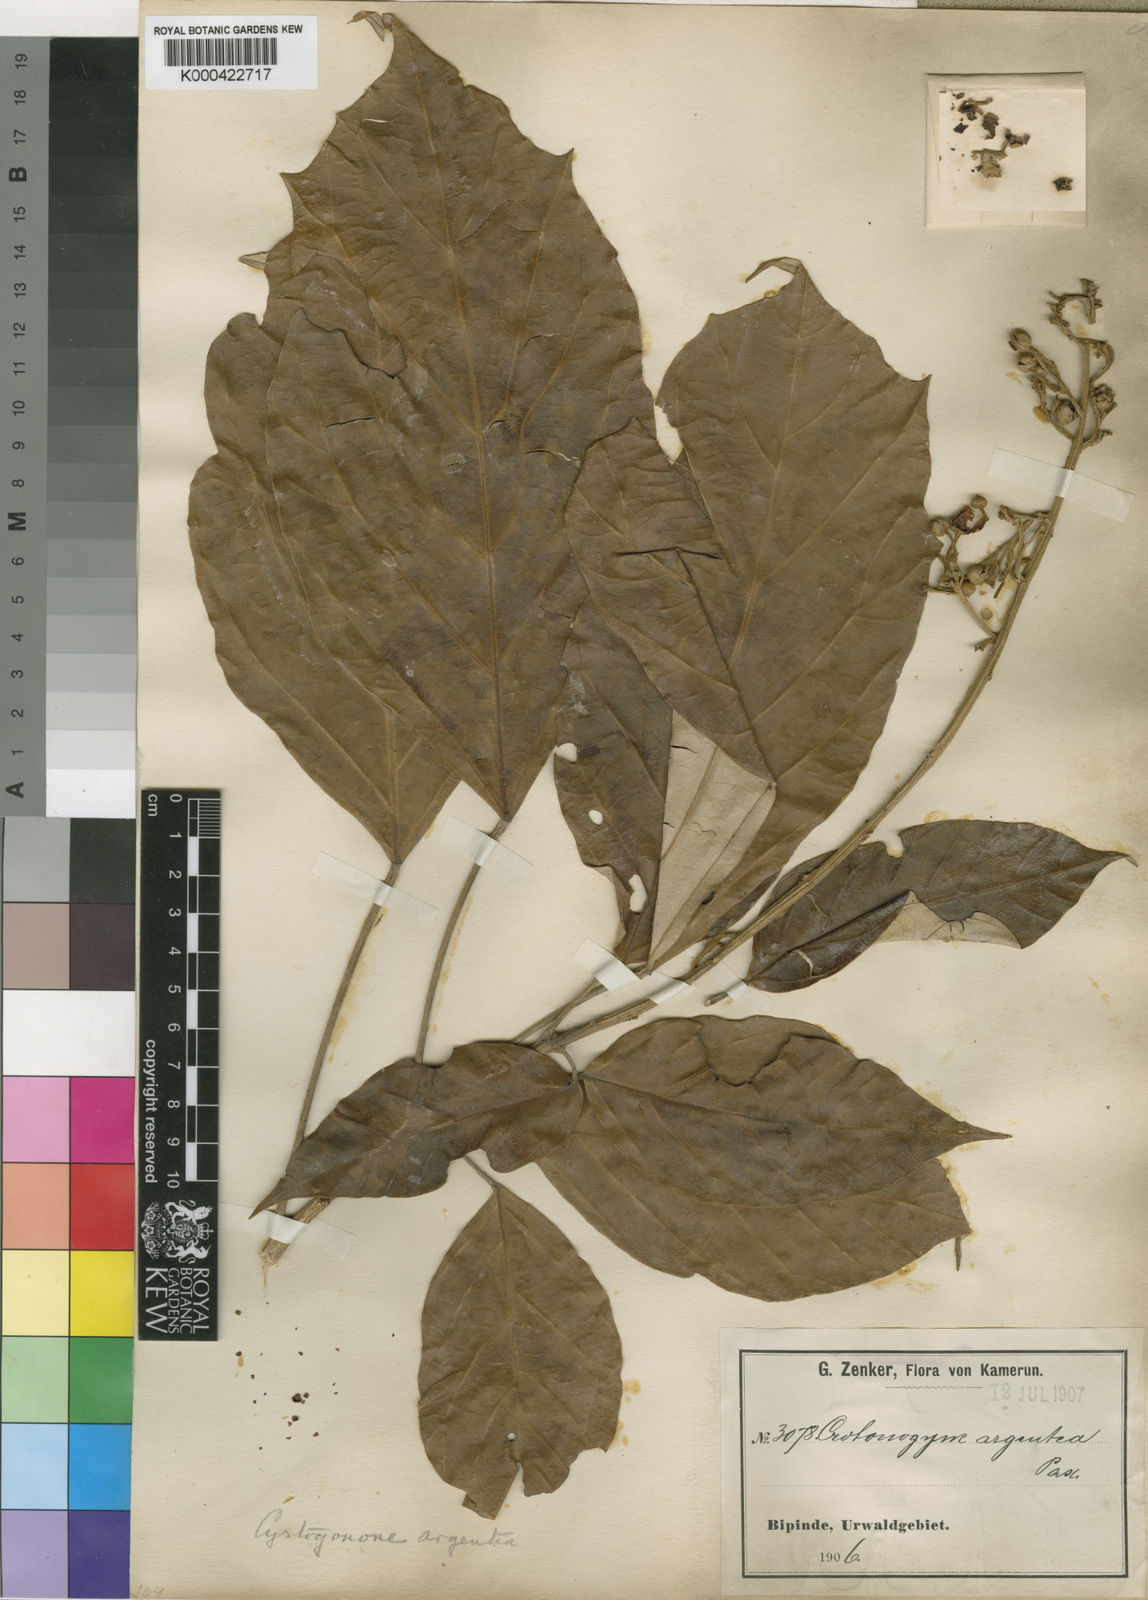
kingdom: Plantae
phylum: Tracheophyta
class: Magnoliopsida
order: Malpighiales
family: Euphorbiaceae
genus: Cyrtogonone
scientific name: Cyrtogonone argentea
